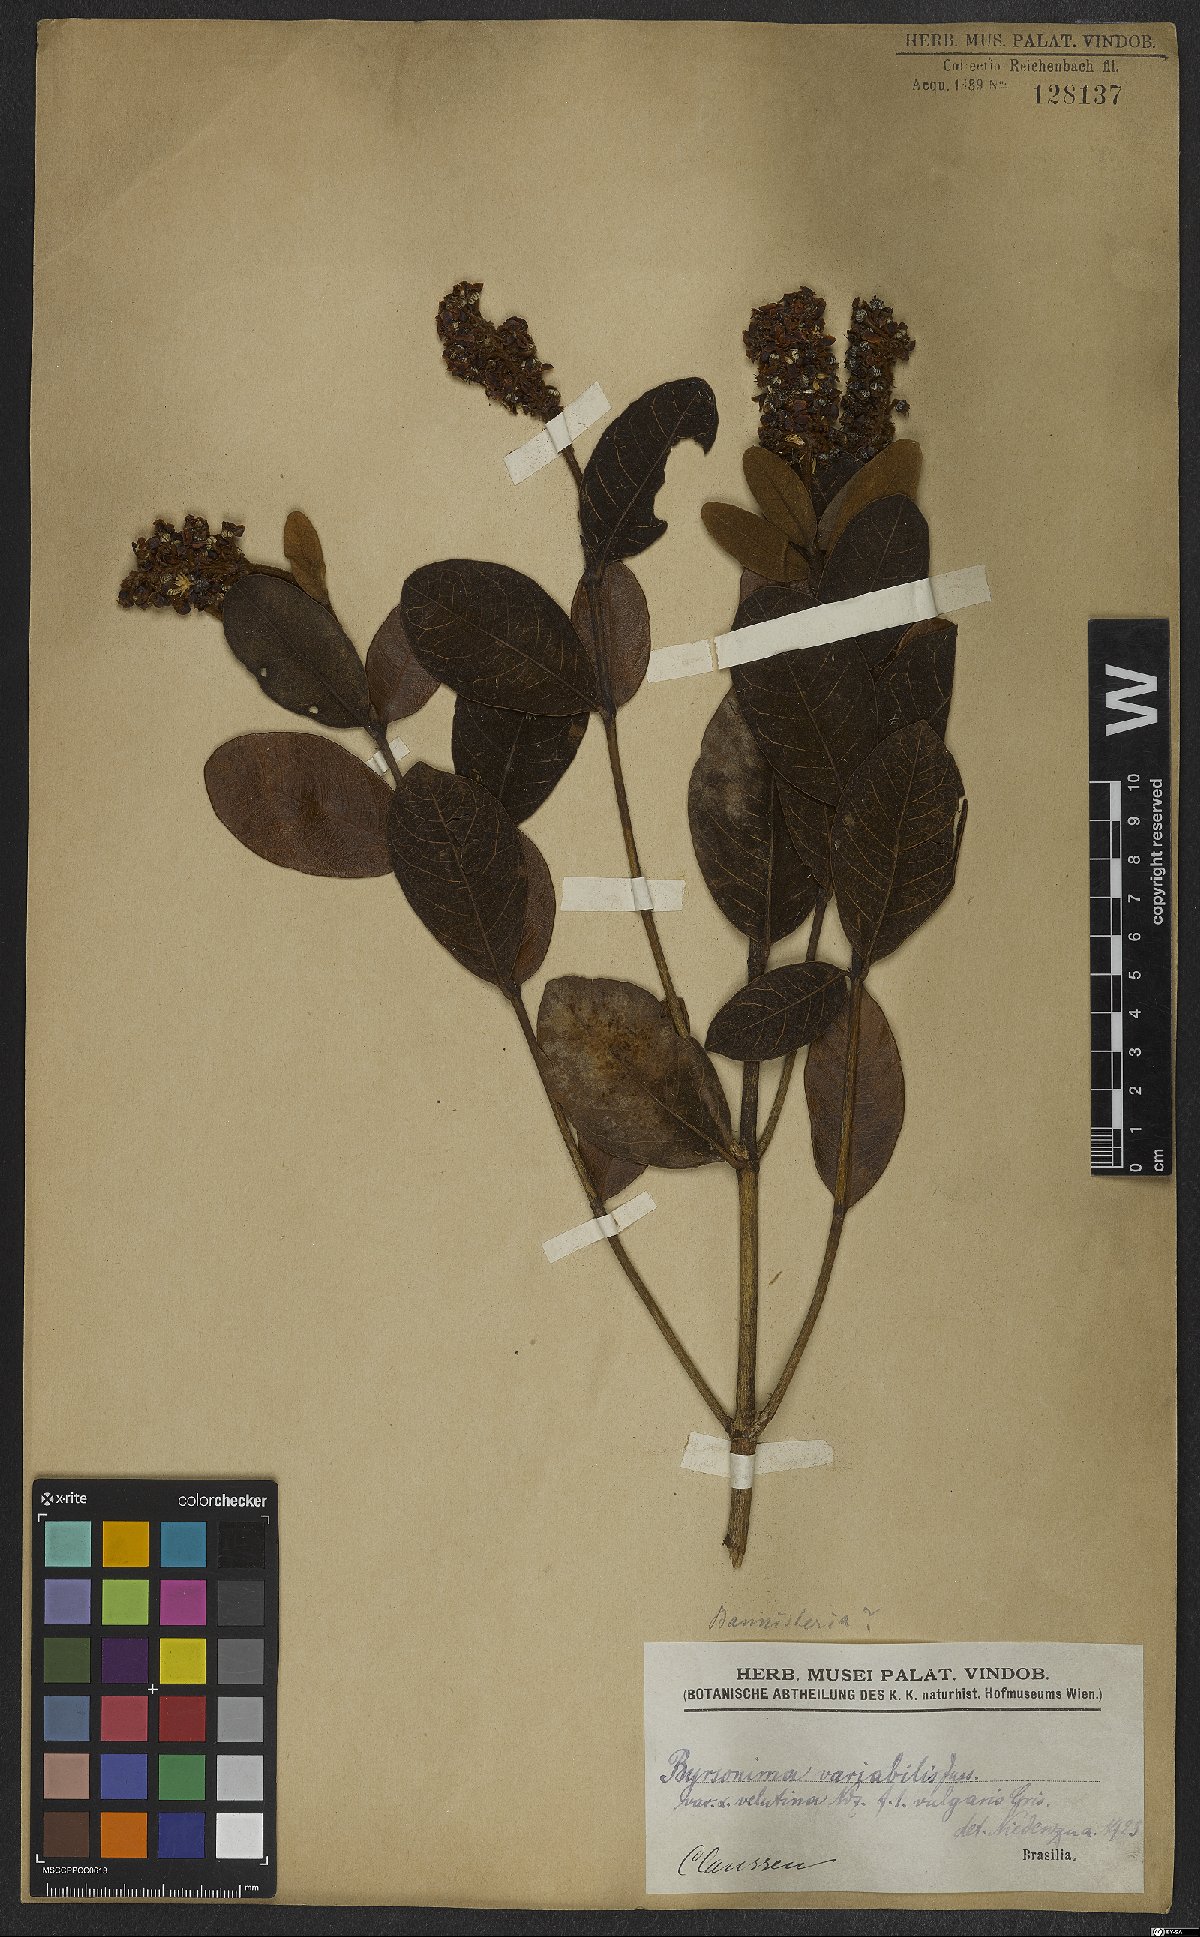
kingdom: Plantae
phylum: Tracheophyta
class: Magnoliopsida
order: Malpighiales
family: Malpighiaceae
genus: Byrsonima
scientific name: Byrsonima variabilis
